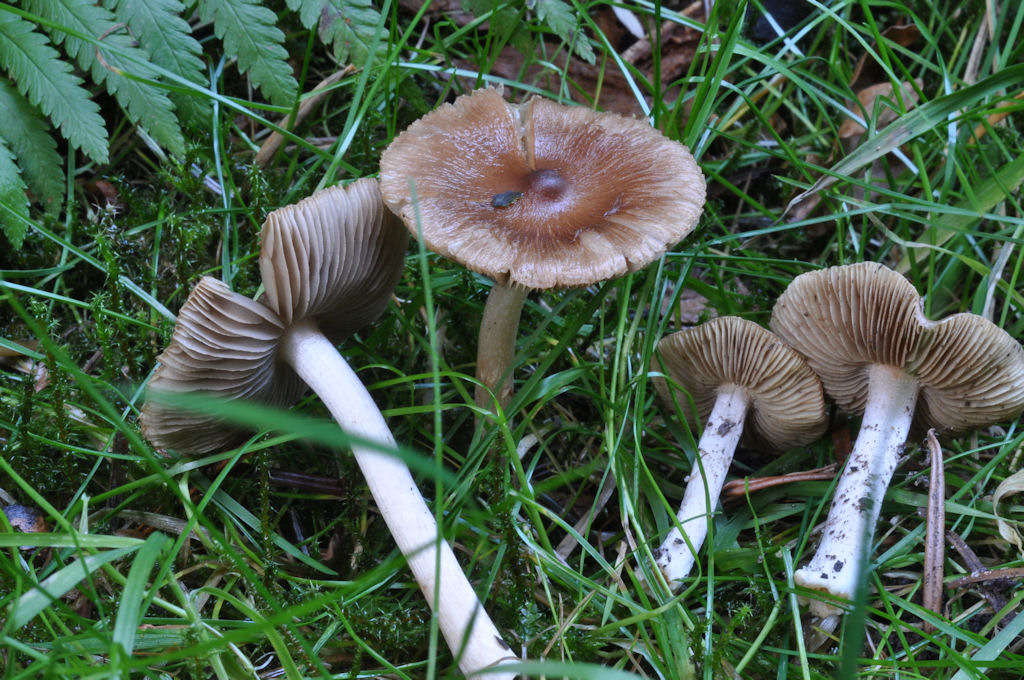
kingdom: Fungi
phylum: Basidiomycota
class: Agaricomycetes
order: Agaricales
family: Inocybaceae
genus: Inocybe
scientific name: Inocybe
